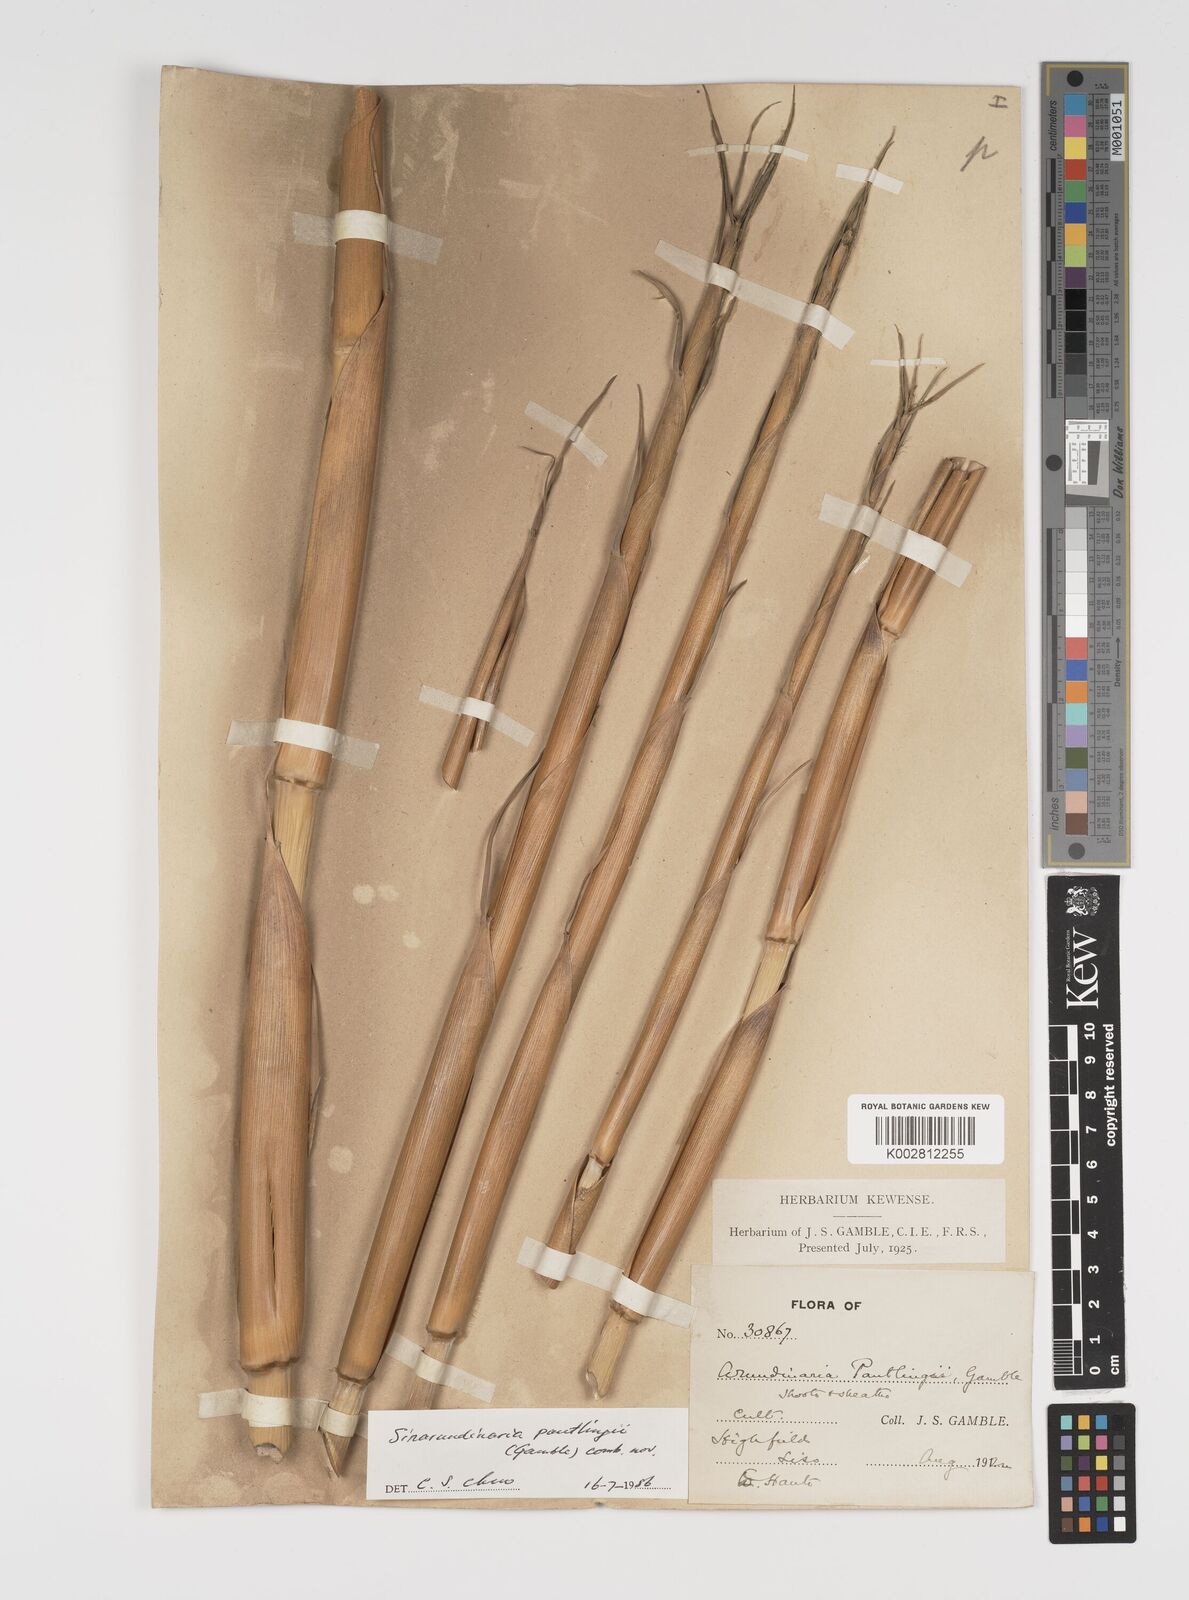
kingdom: Plantae
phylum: Tracheophyta
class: Liliopsida
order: Poales
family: Poaceae
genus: Yushania
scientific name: Yushania pantlingii
